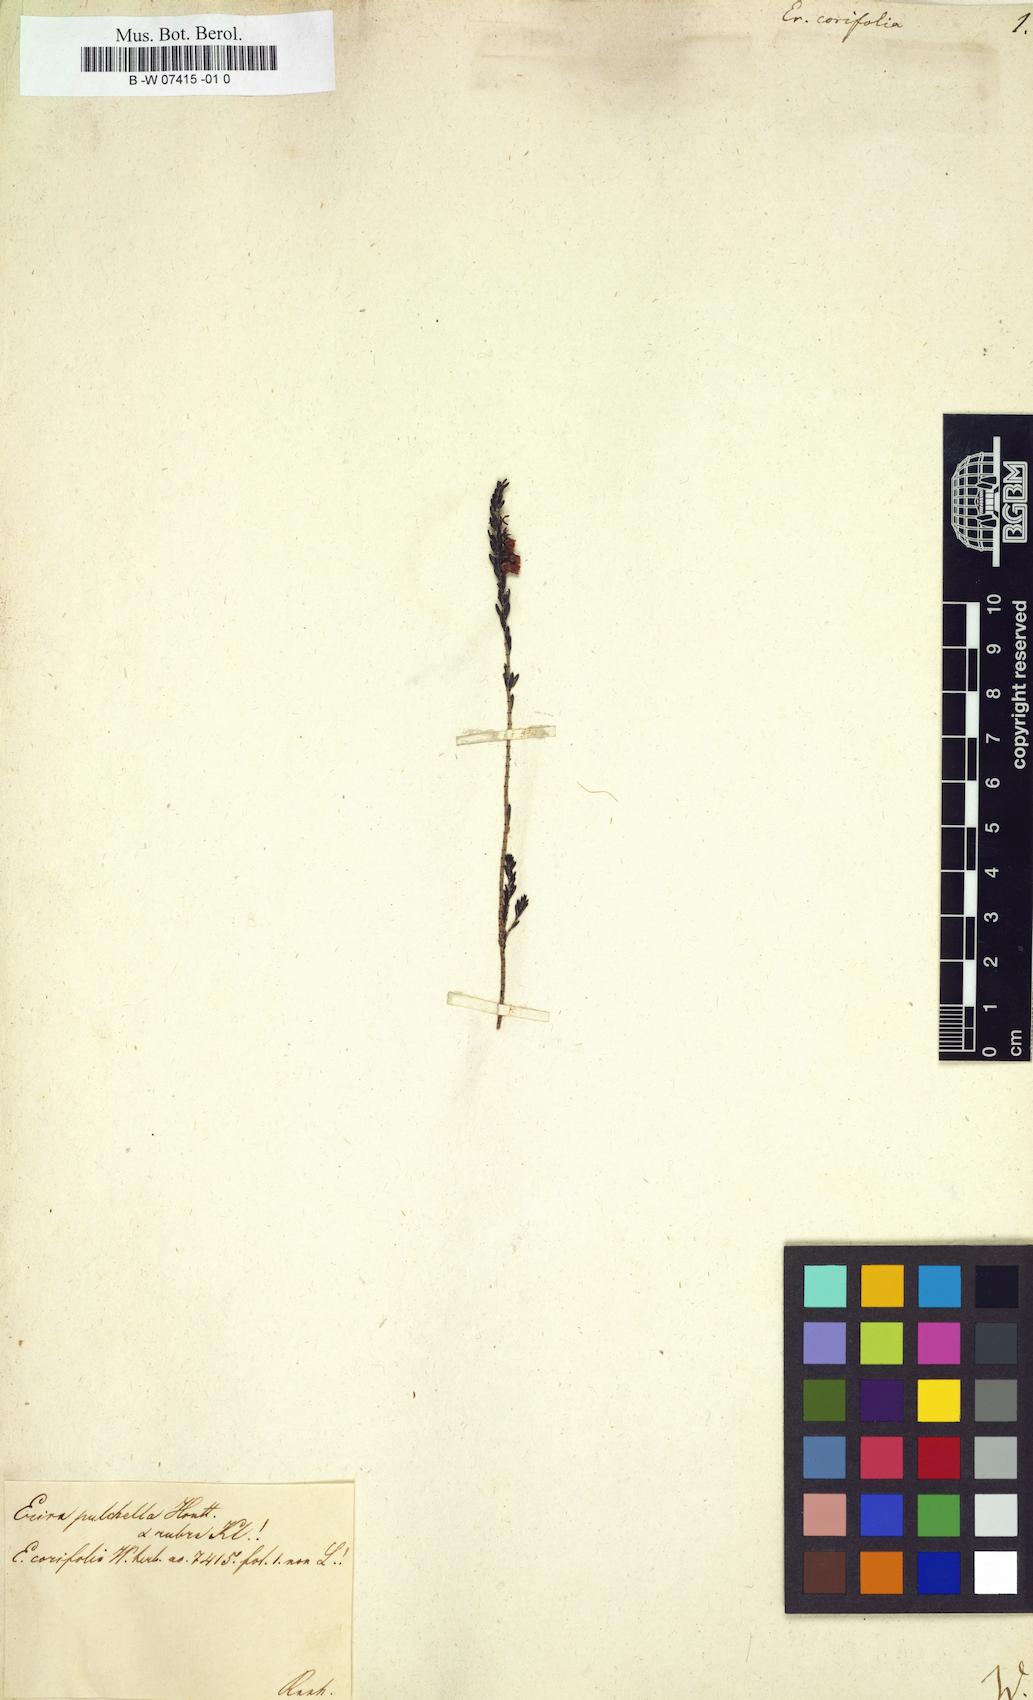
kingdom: Plantae
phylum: Tracheophyta
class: Magnoliopsida
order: Ericales
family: Ericaceae
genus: Erica
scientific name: Erica corifolia
